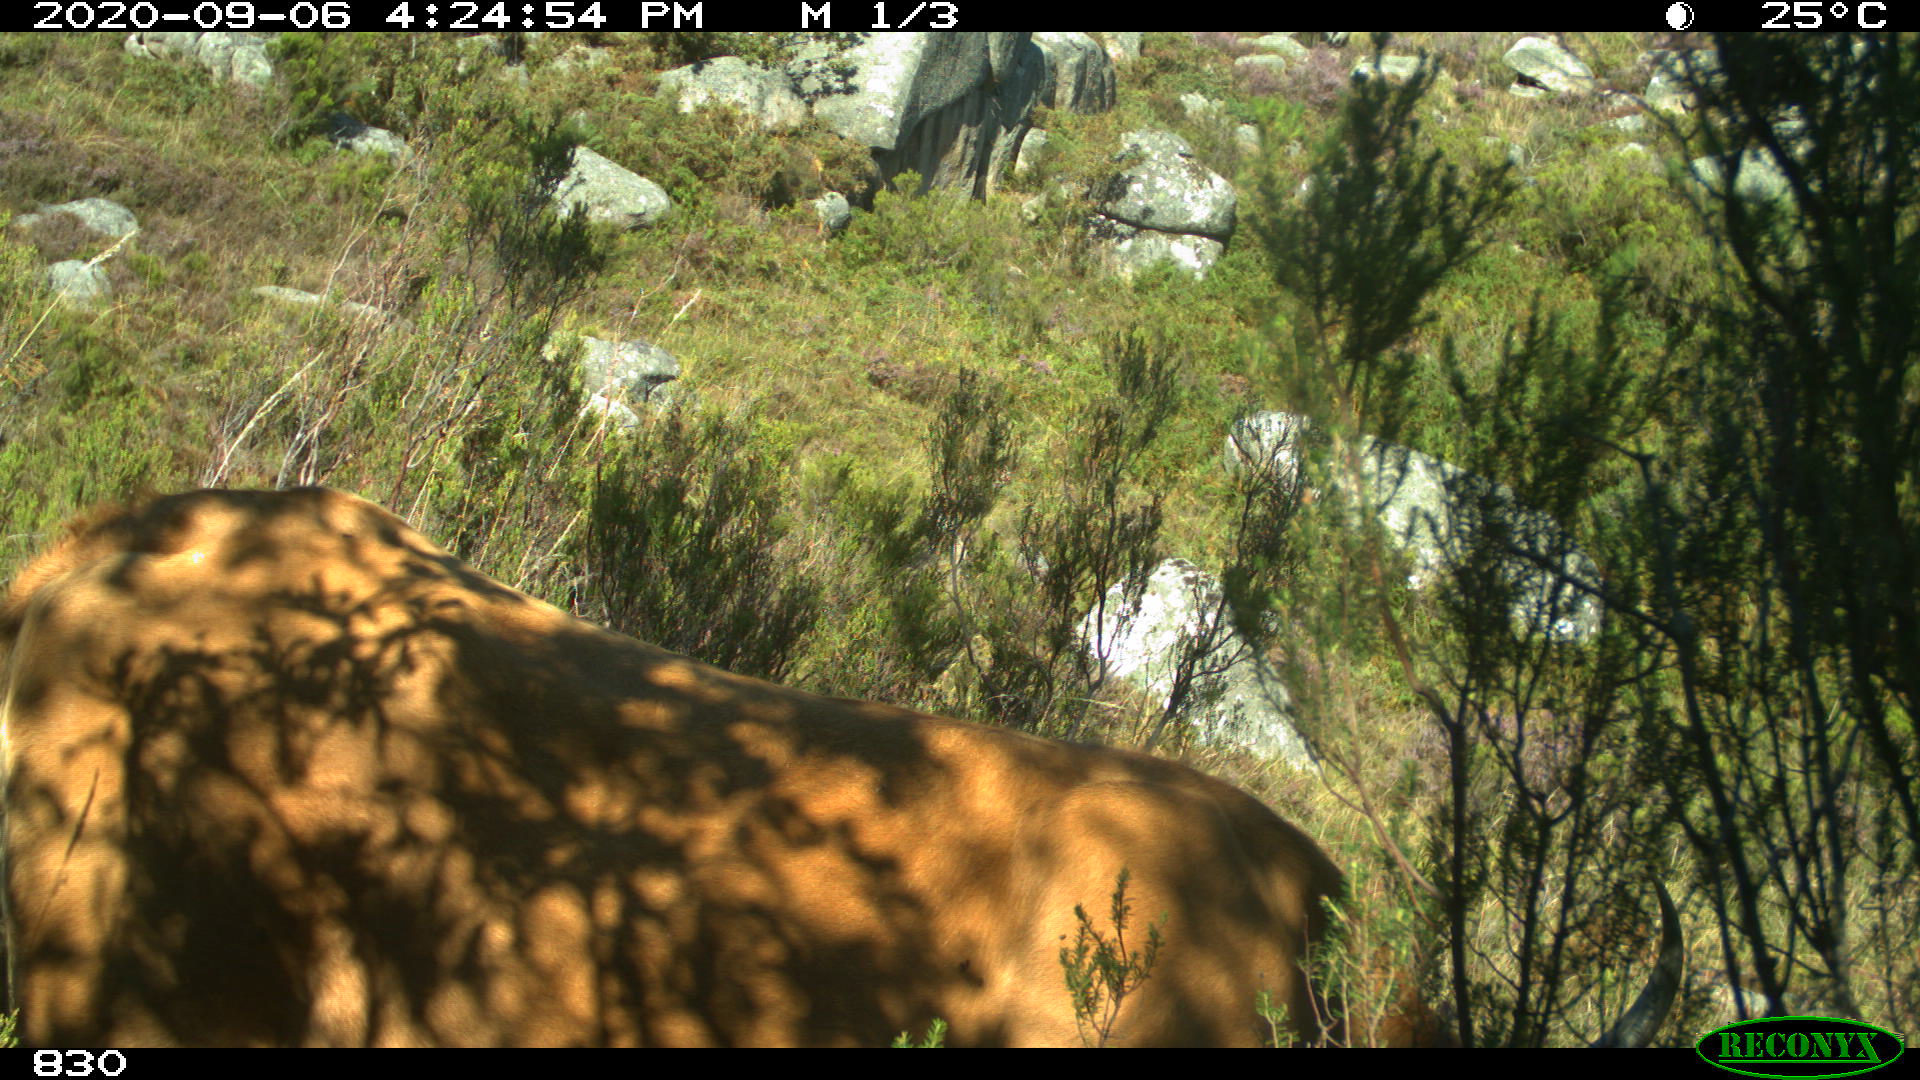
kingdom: Animalia
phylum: Chordata
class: Mammalia
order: Artiodactyla
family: Bovidae
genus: Bos
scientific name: Bos taurus
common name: Domesticated cattle
